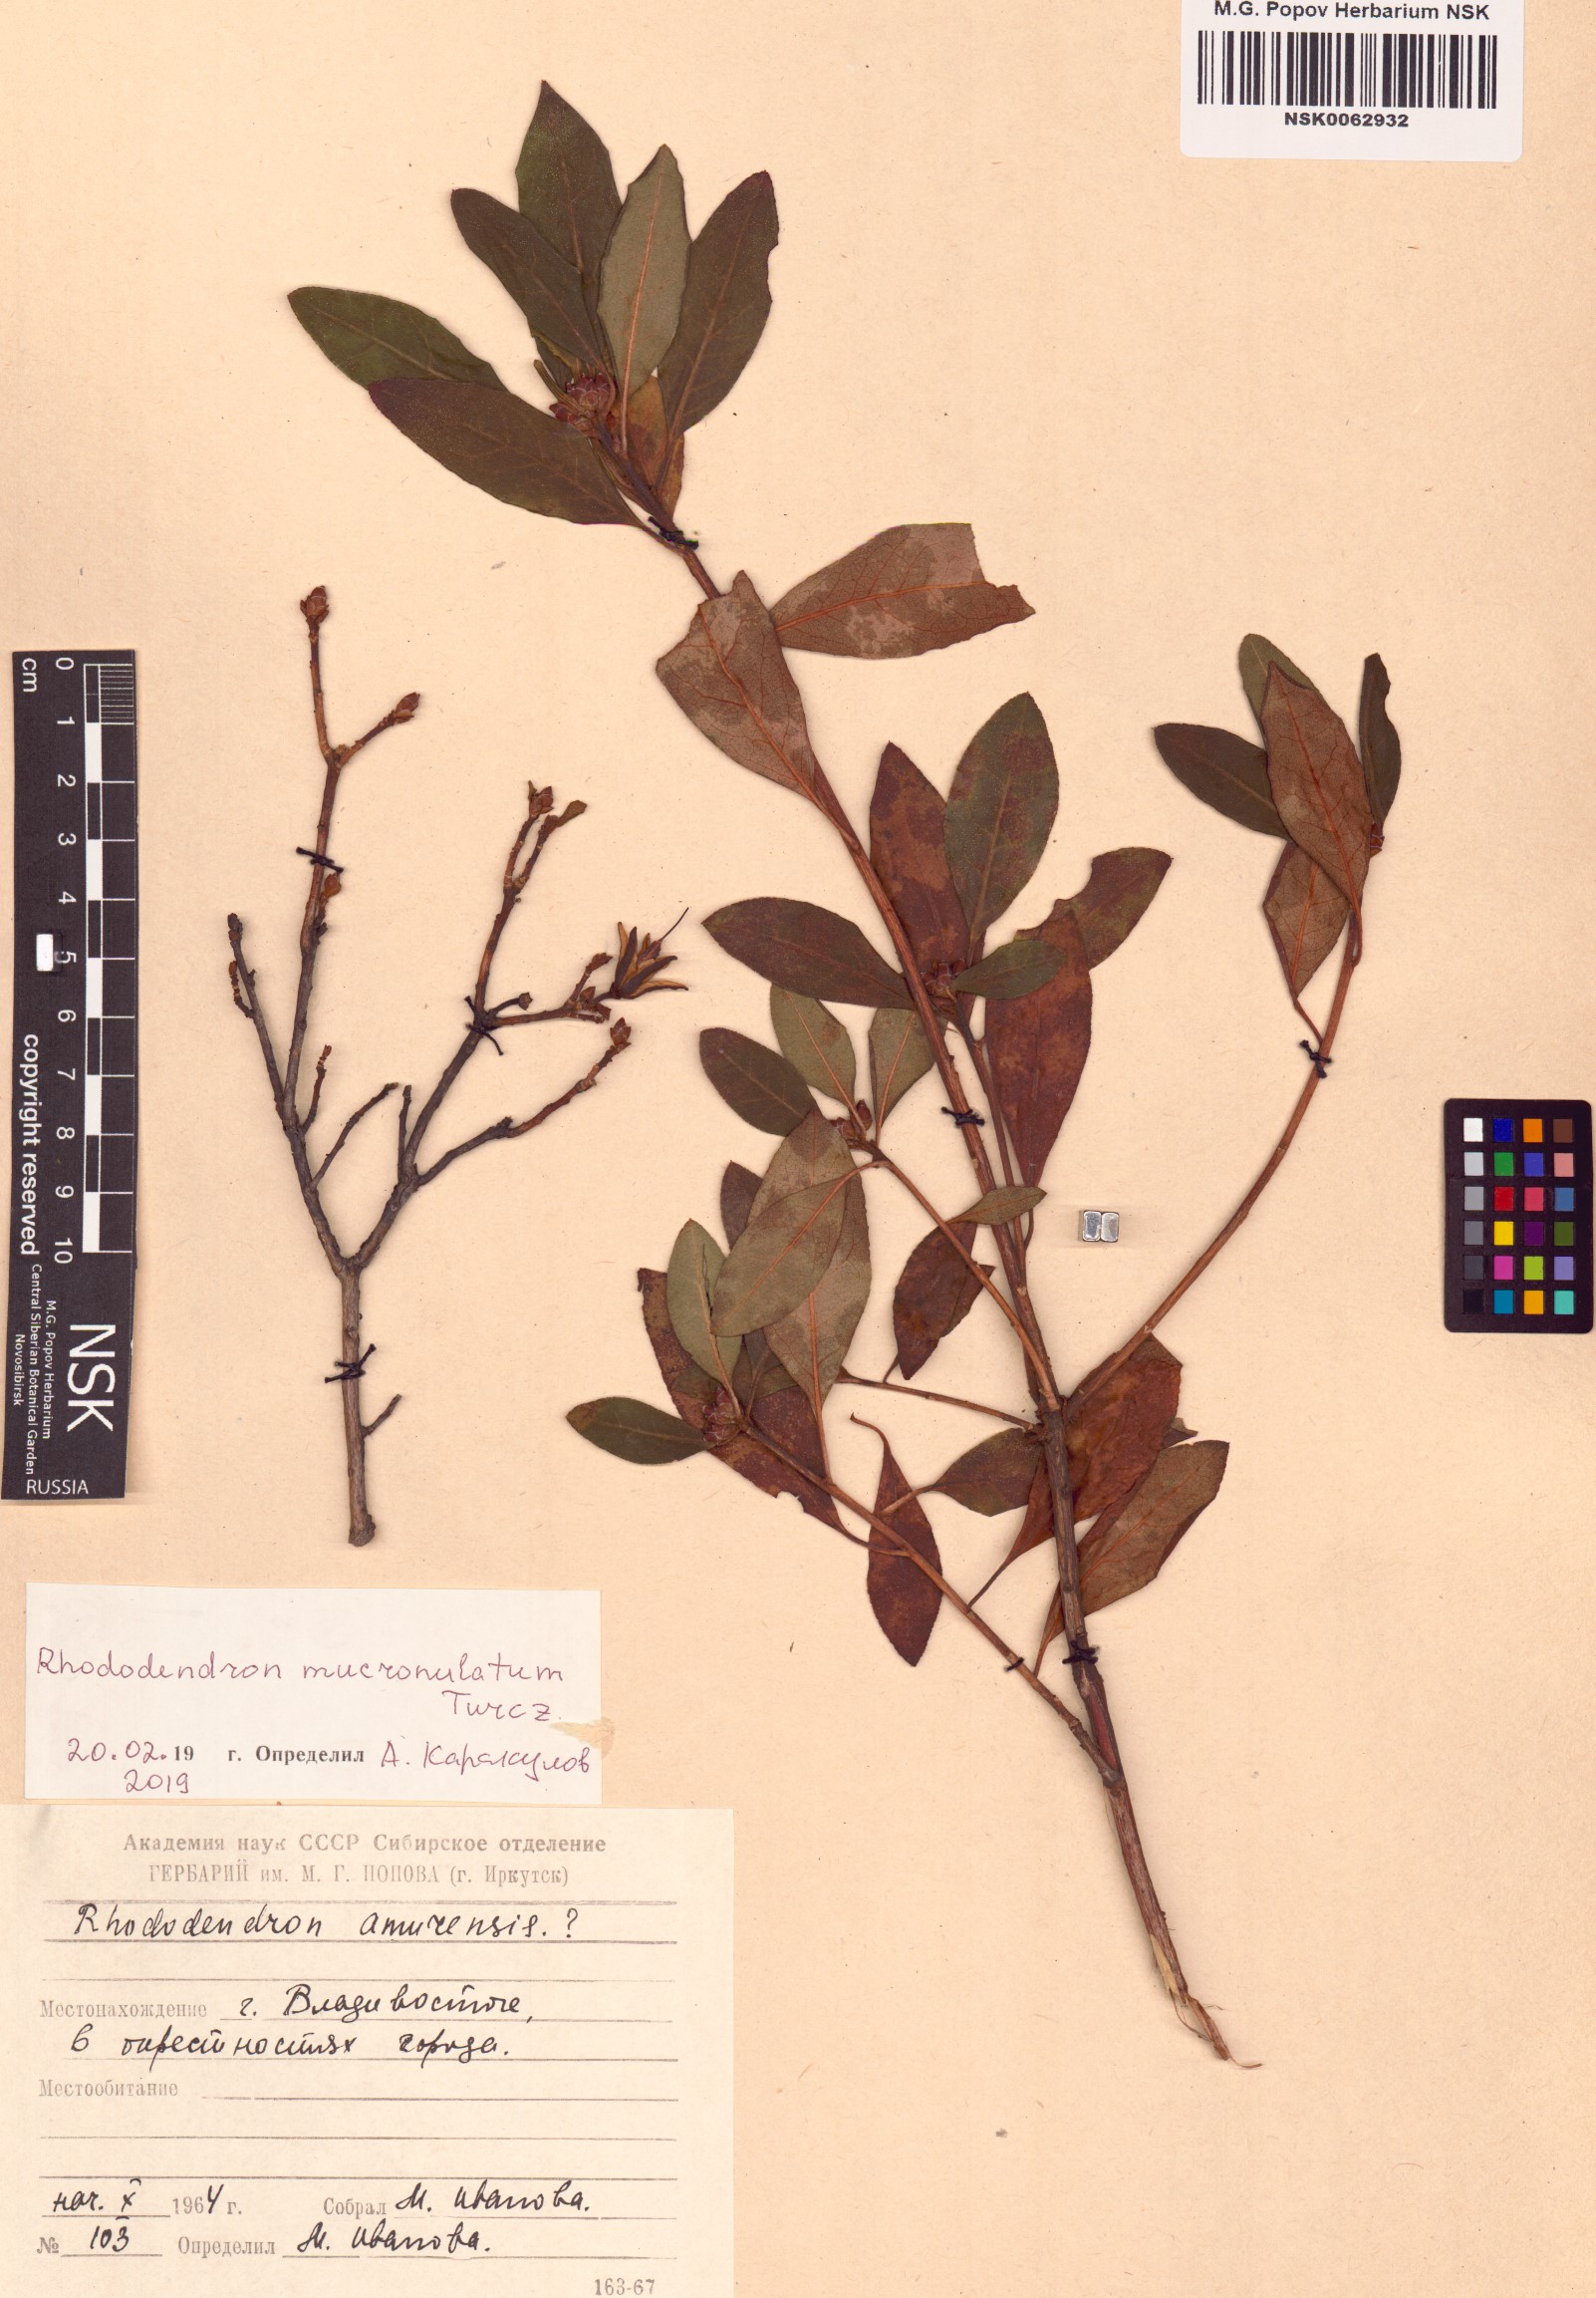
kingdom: Plantae
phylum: Tracheophyta
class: Magnoliopsida
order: Ericales
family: Ericaceae
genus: Rhododendron
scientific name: Rhododendron mucronulatum
